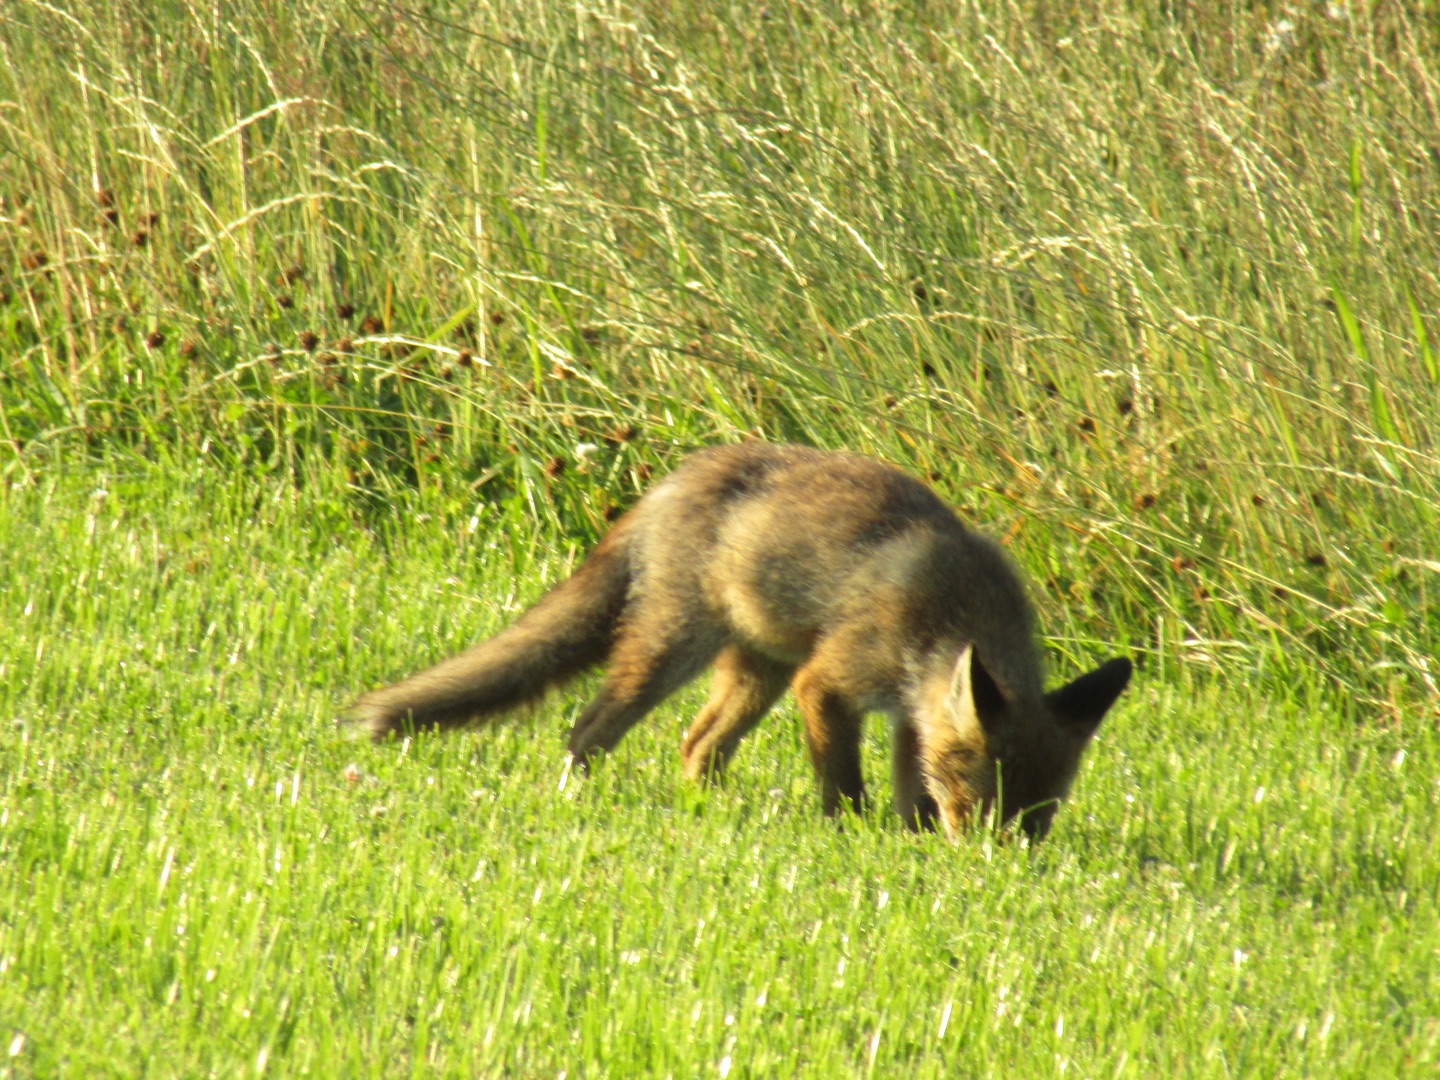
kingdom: Animalia
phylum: Chordata
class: Mammalia
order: Carnivora
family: Canidae
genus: Vulpes
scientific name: Vulpes vulpes
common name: Ræv
